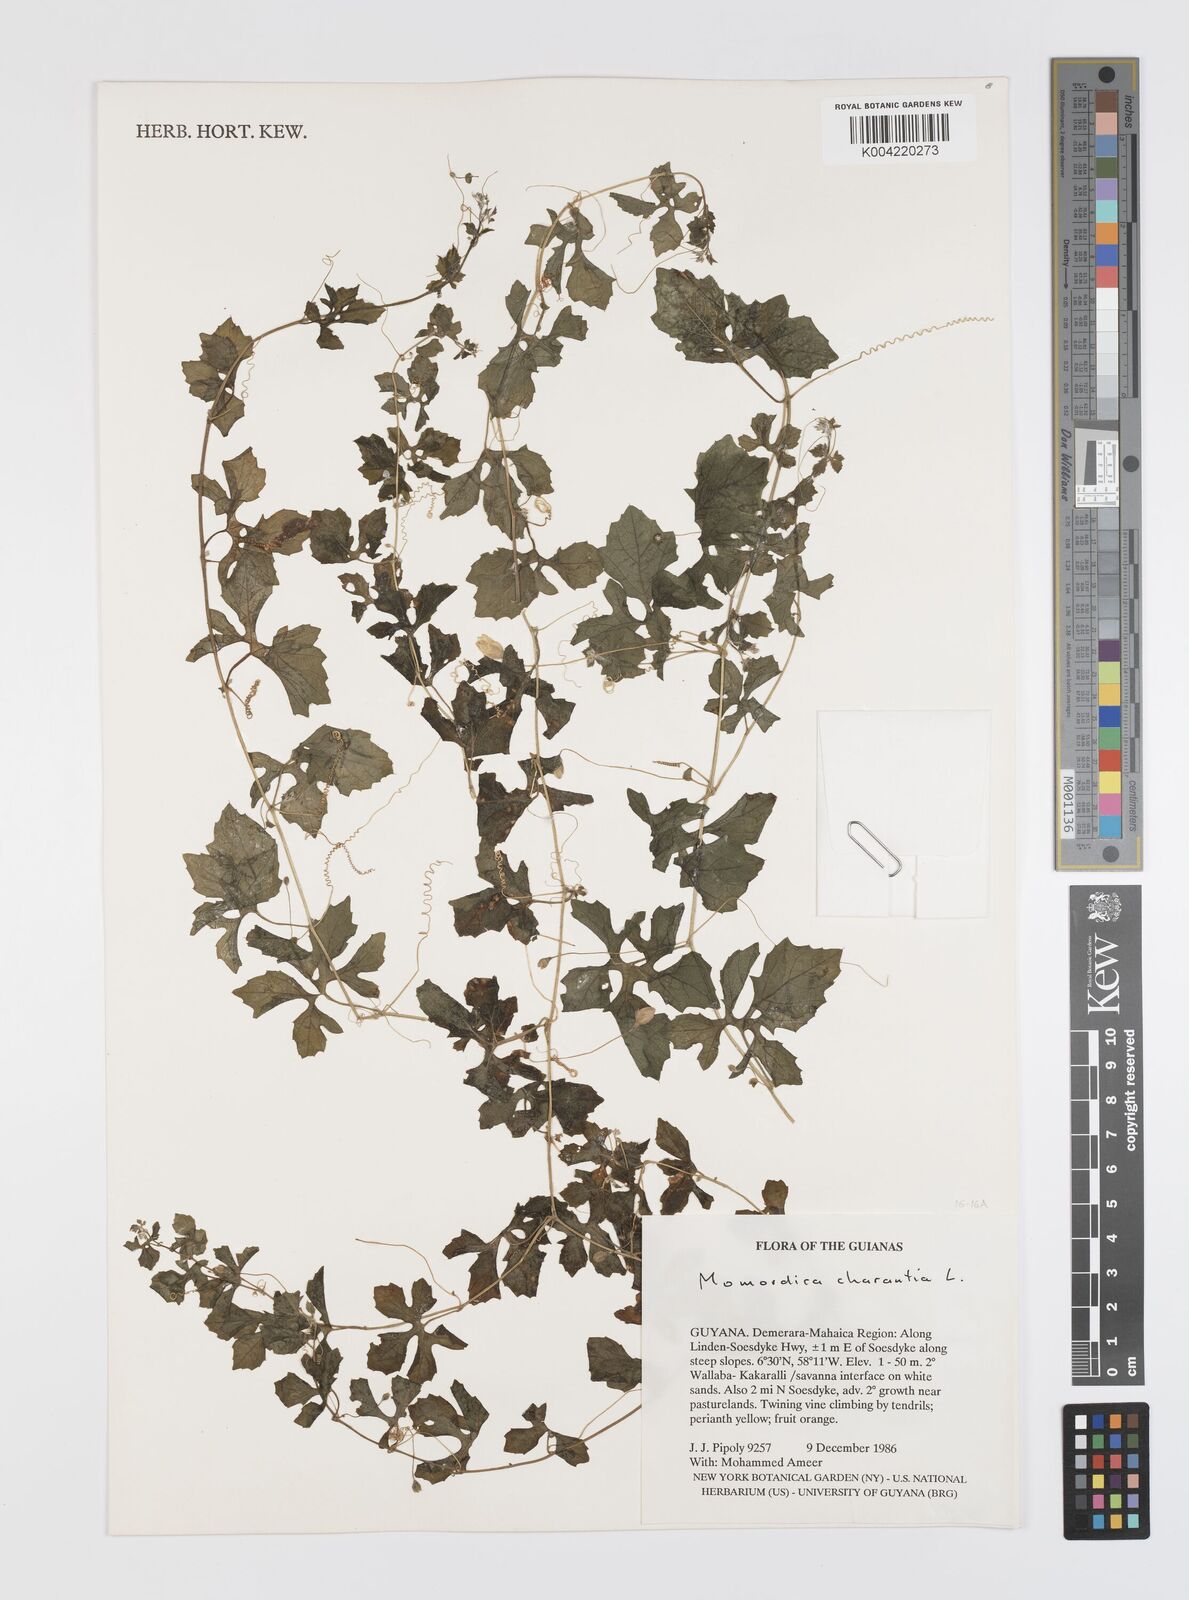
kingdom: Plantae
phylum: Tracheophyta
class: Magnoliopsida
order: Cucurbitales
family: Cucurbitaceae
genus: Momordica
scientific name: Momordica charantia
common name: Balsampear
